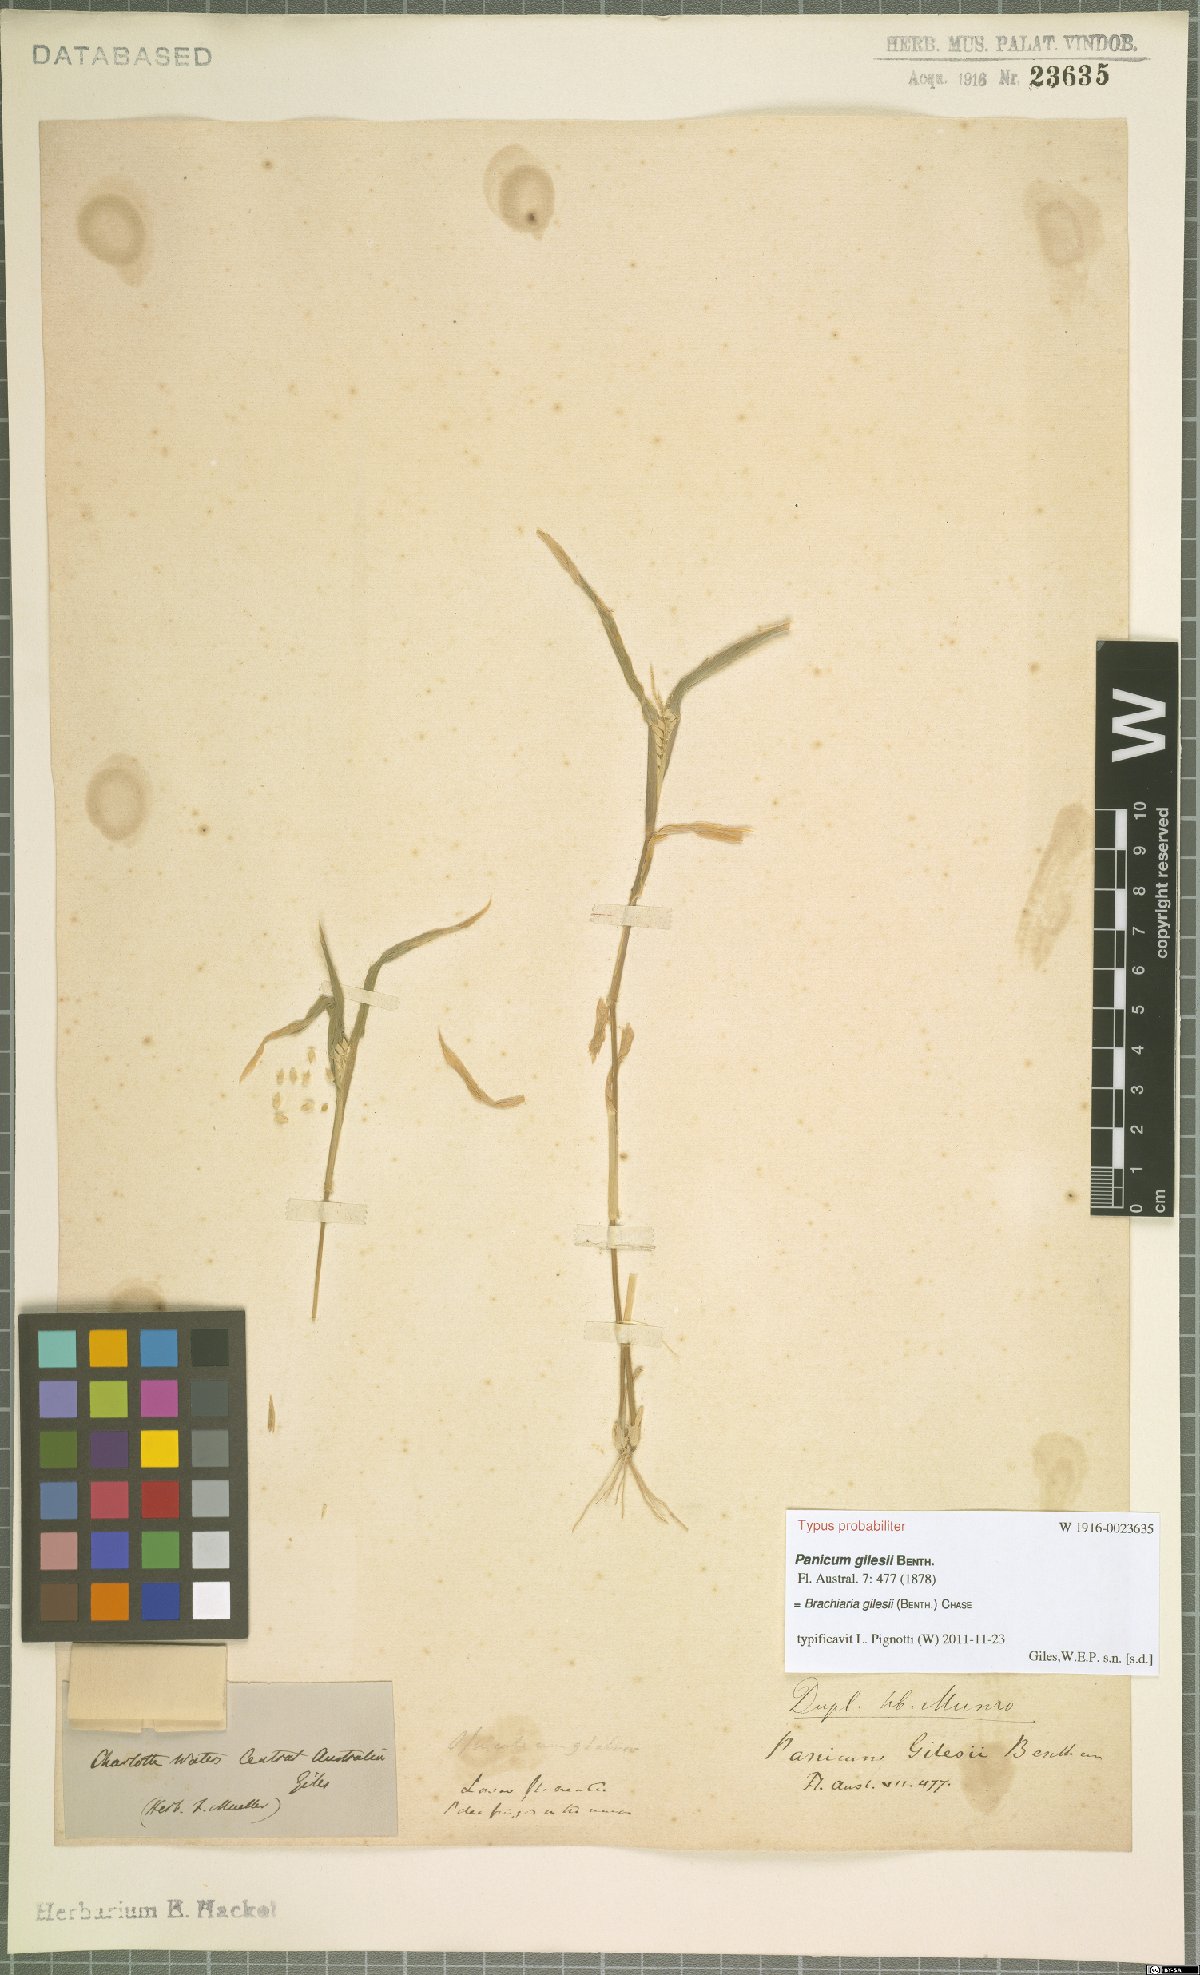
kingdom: Plantae
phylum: Tracheophyta
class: Liliopsida
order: Poales
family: Poaceae
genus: Urochloa
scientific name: Urochloa gilesii
